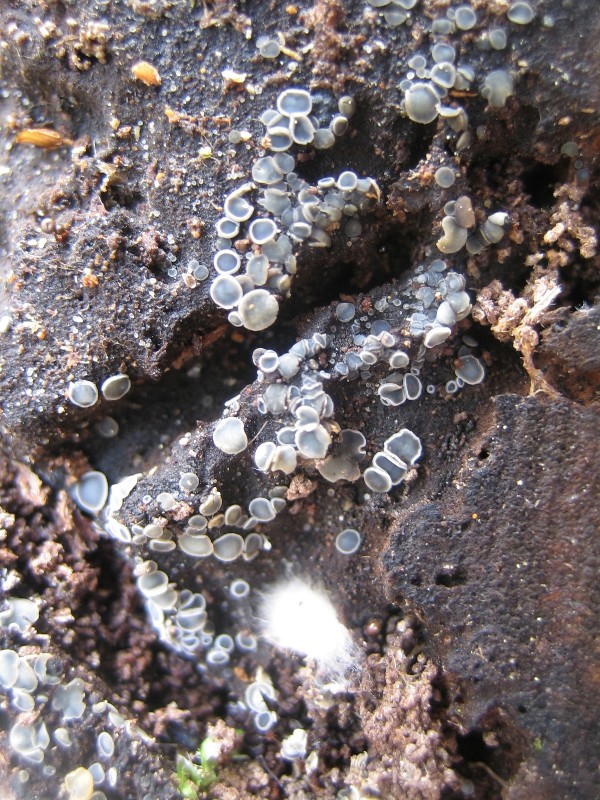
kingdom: Fungi
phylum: Ascomycota
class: Leotiomycetes
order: Helotiales
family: Mollisiaceae
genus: Mollisia
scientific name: Mollisia
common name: gråskive
